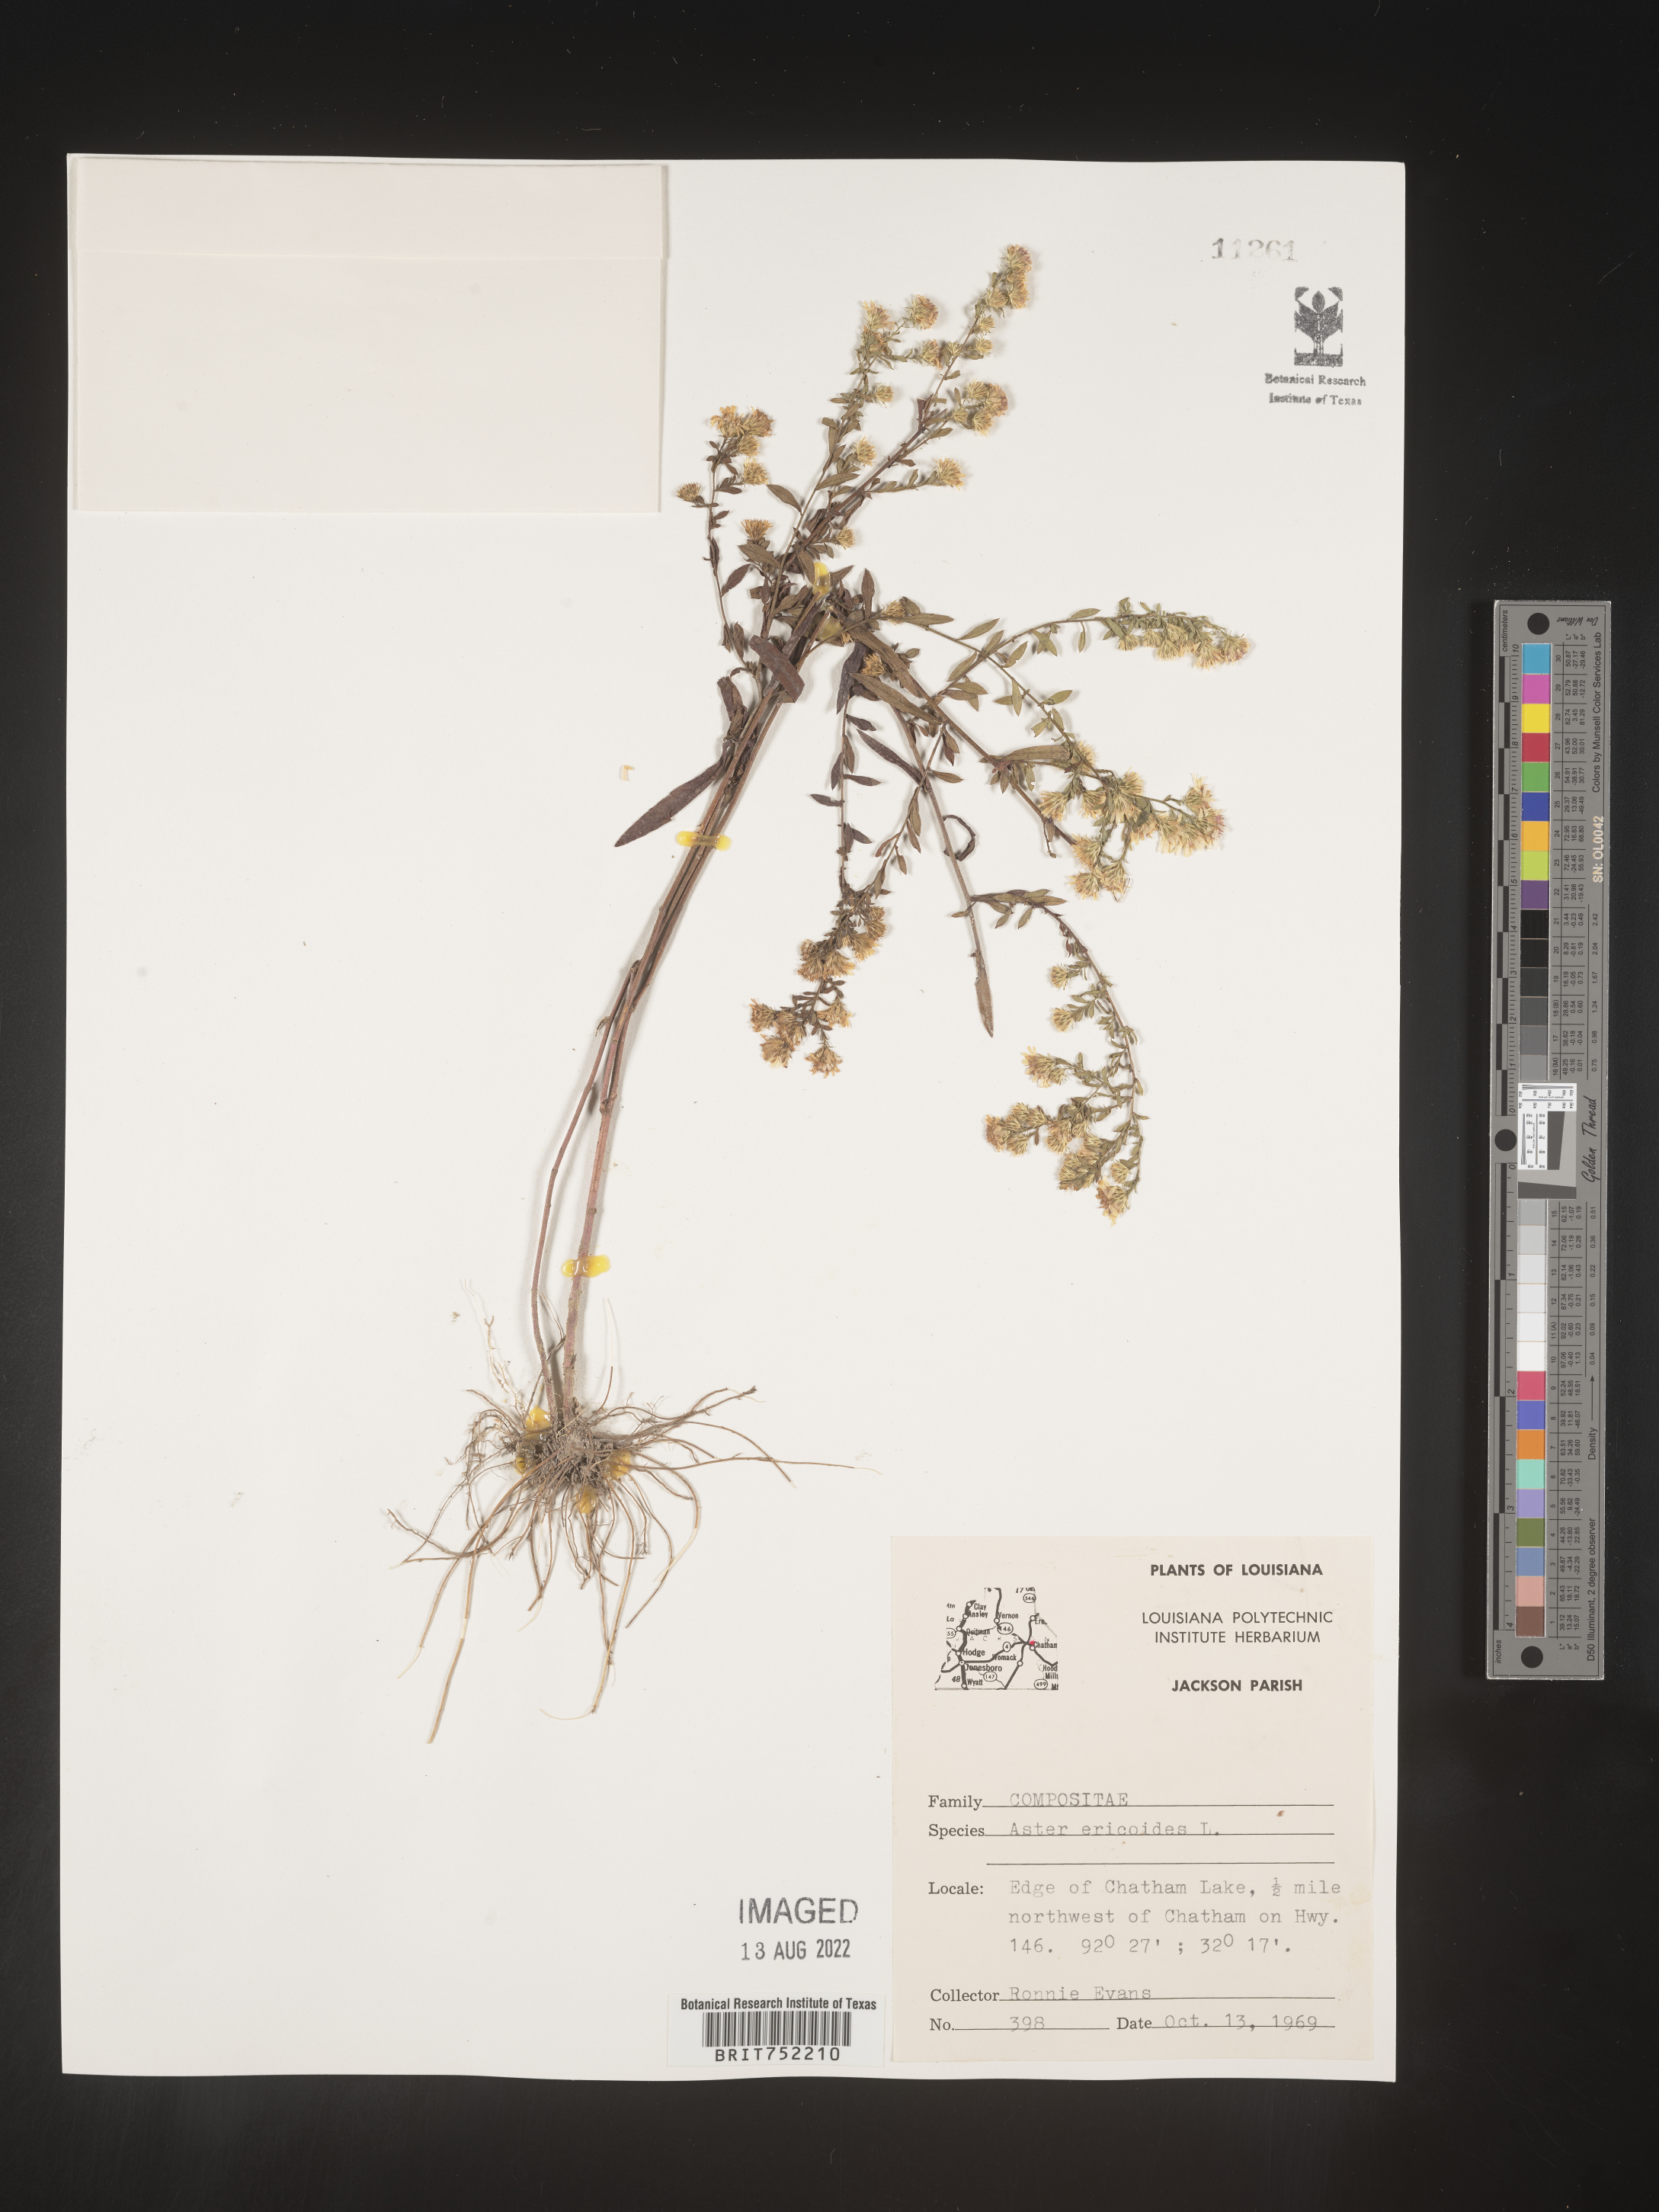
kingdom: Plantae
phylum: Tracheophyta
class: Magnoliopsida
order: Asterales
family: Asteraceae
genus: Symphyotrichum
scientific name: Symphyotrichum ericoides
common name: Heath aster
